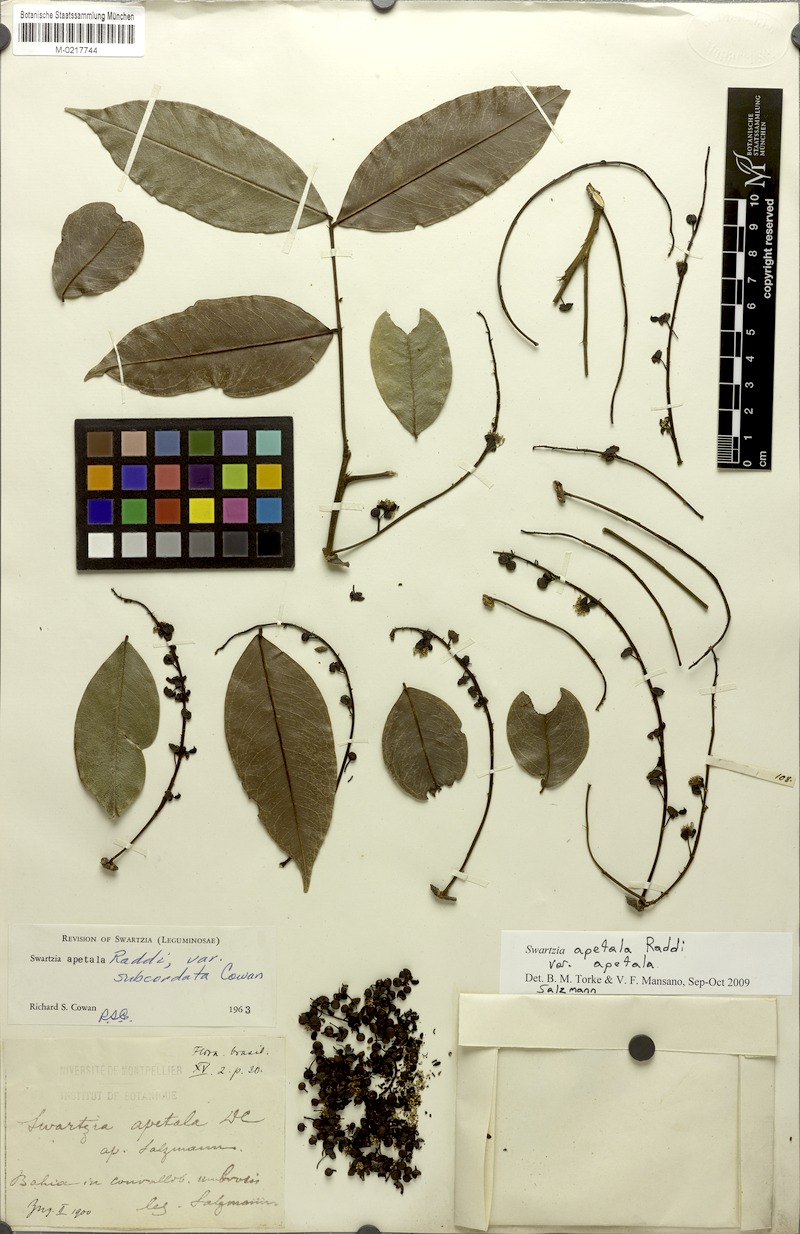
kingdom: Plantae
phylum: Tracheophyta
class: Magnoliopsida
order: Fabales
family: Fabaceae
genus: Swartzia
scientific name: Swartzia apetala
